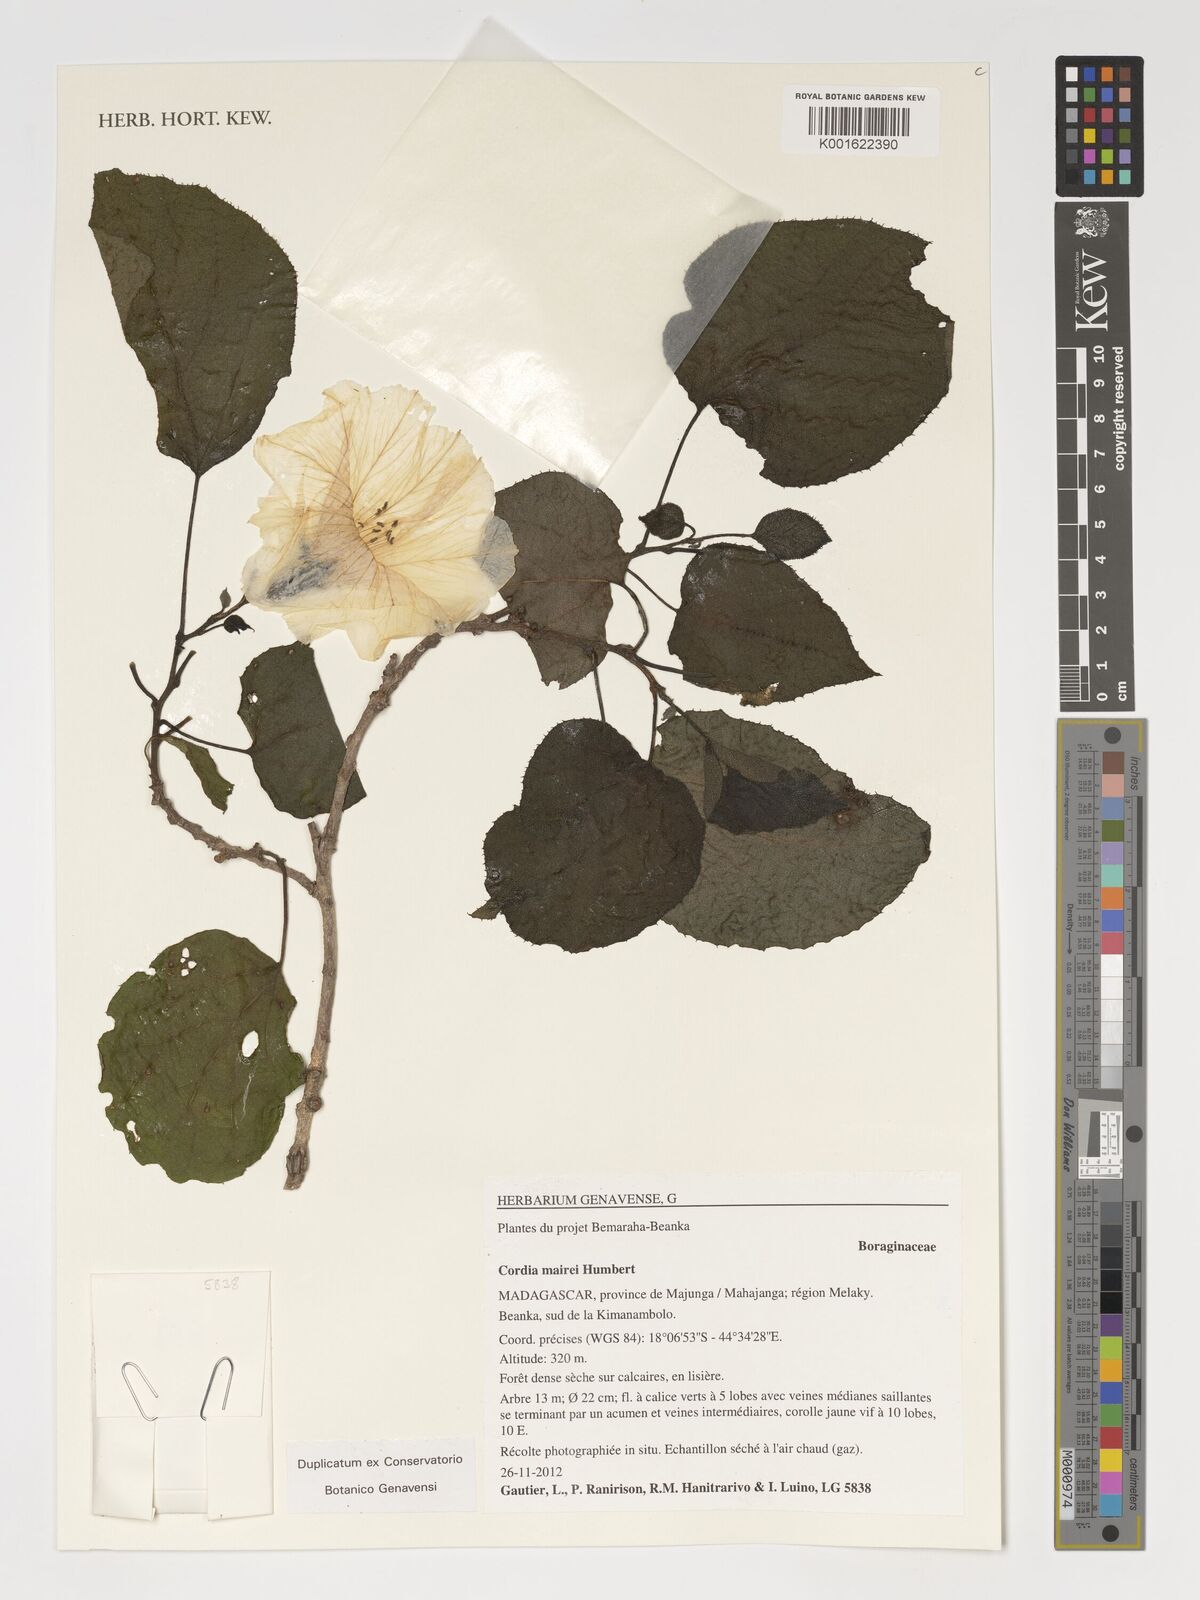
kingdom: Plantae
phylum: Tracheophyta
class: Magnoliopsida
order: Boraginales
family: Cordiaceae
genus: Cordia
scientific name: Cordia mairei
